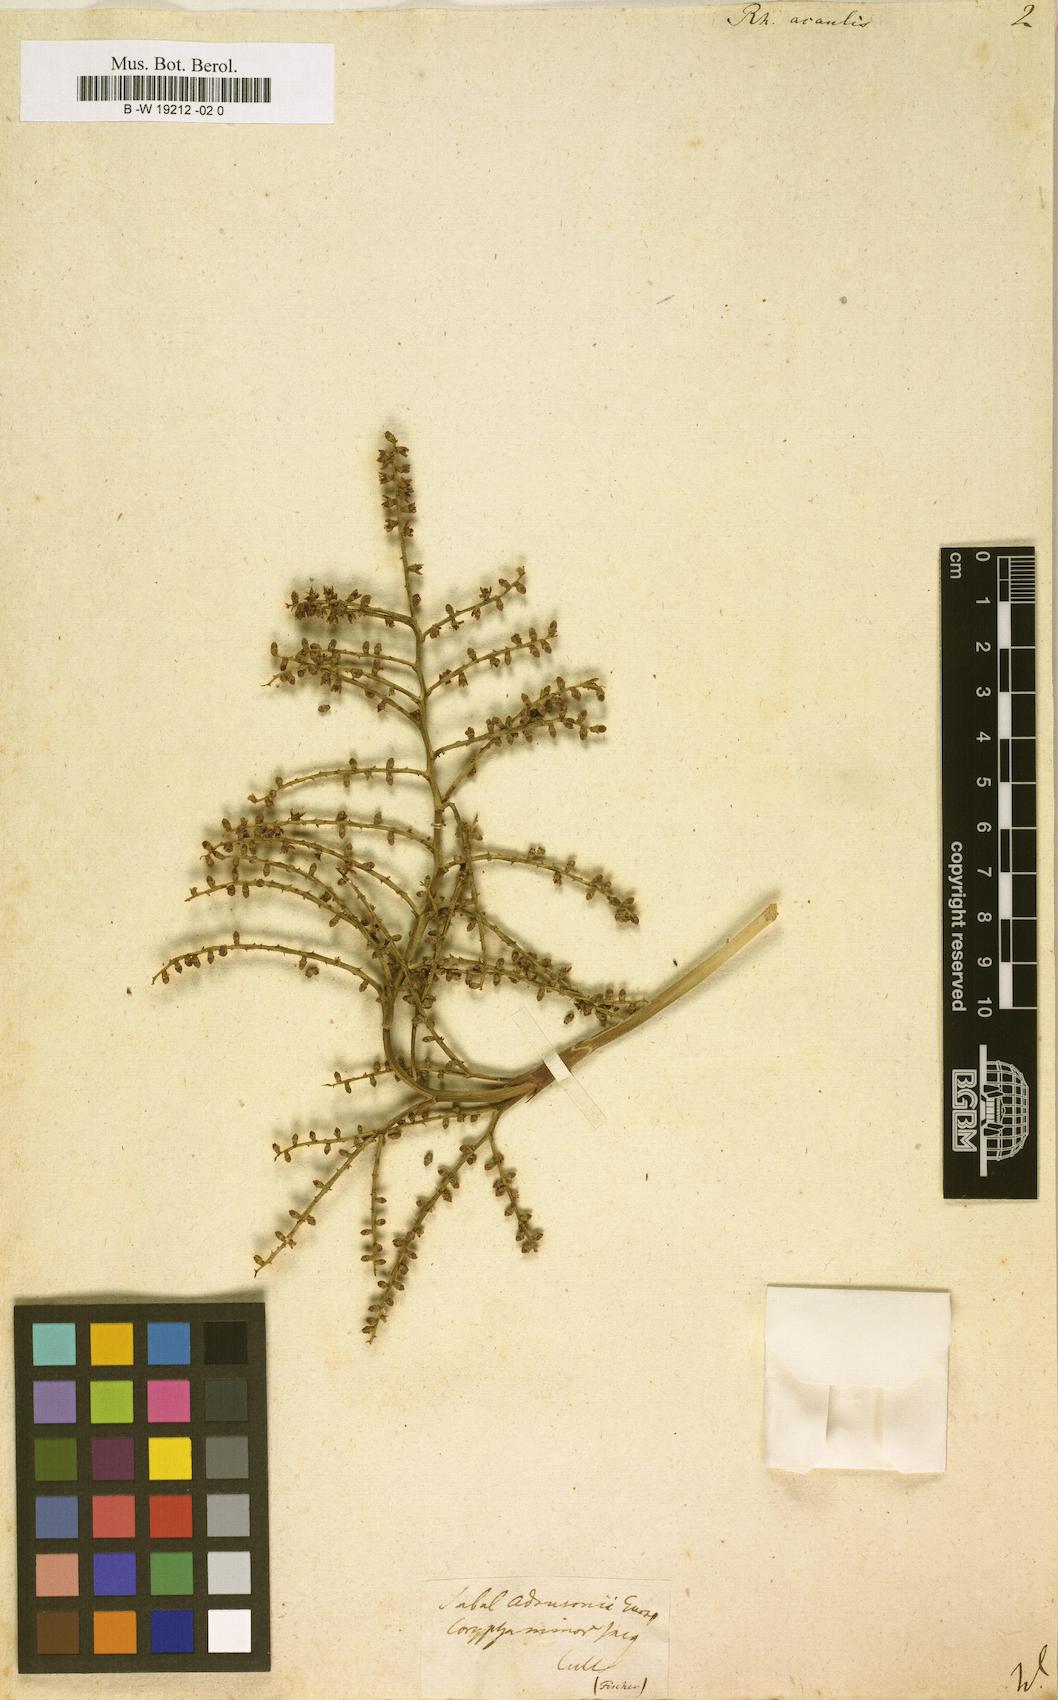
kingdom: Plantae
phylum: Tracheophyta
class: Liliopsida
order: Arecales
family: Arecaceae
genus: Sabal
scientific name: Sabal minor
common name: Dwarf palmetto
